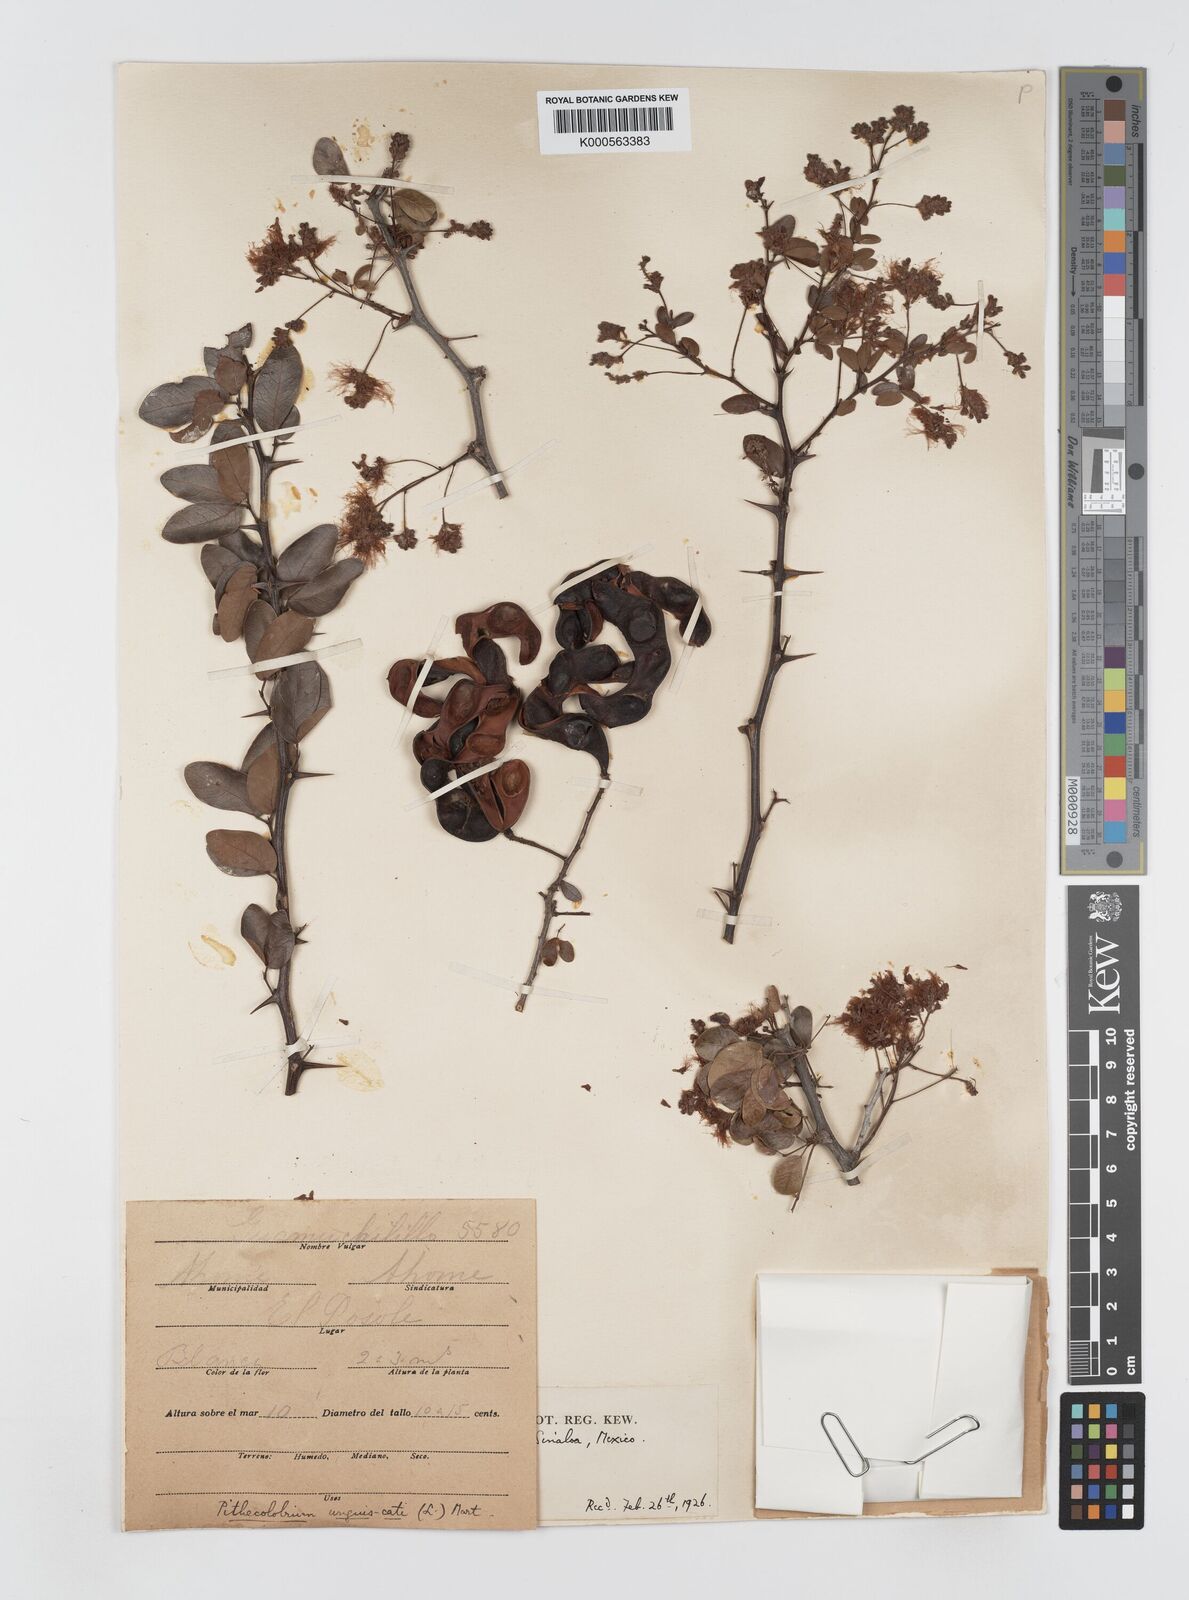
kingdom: Plantae
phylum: Tracheophyta
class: Magnoliopsida
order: Fabales
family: Fabaceae
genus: Pithecellobium
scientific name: Pithecellobium unguis-cati
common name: Cat's-claw
